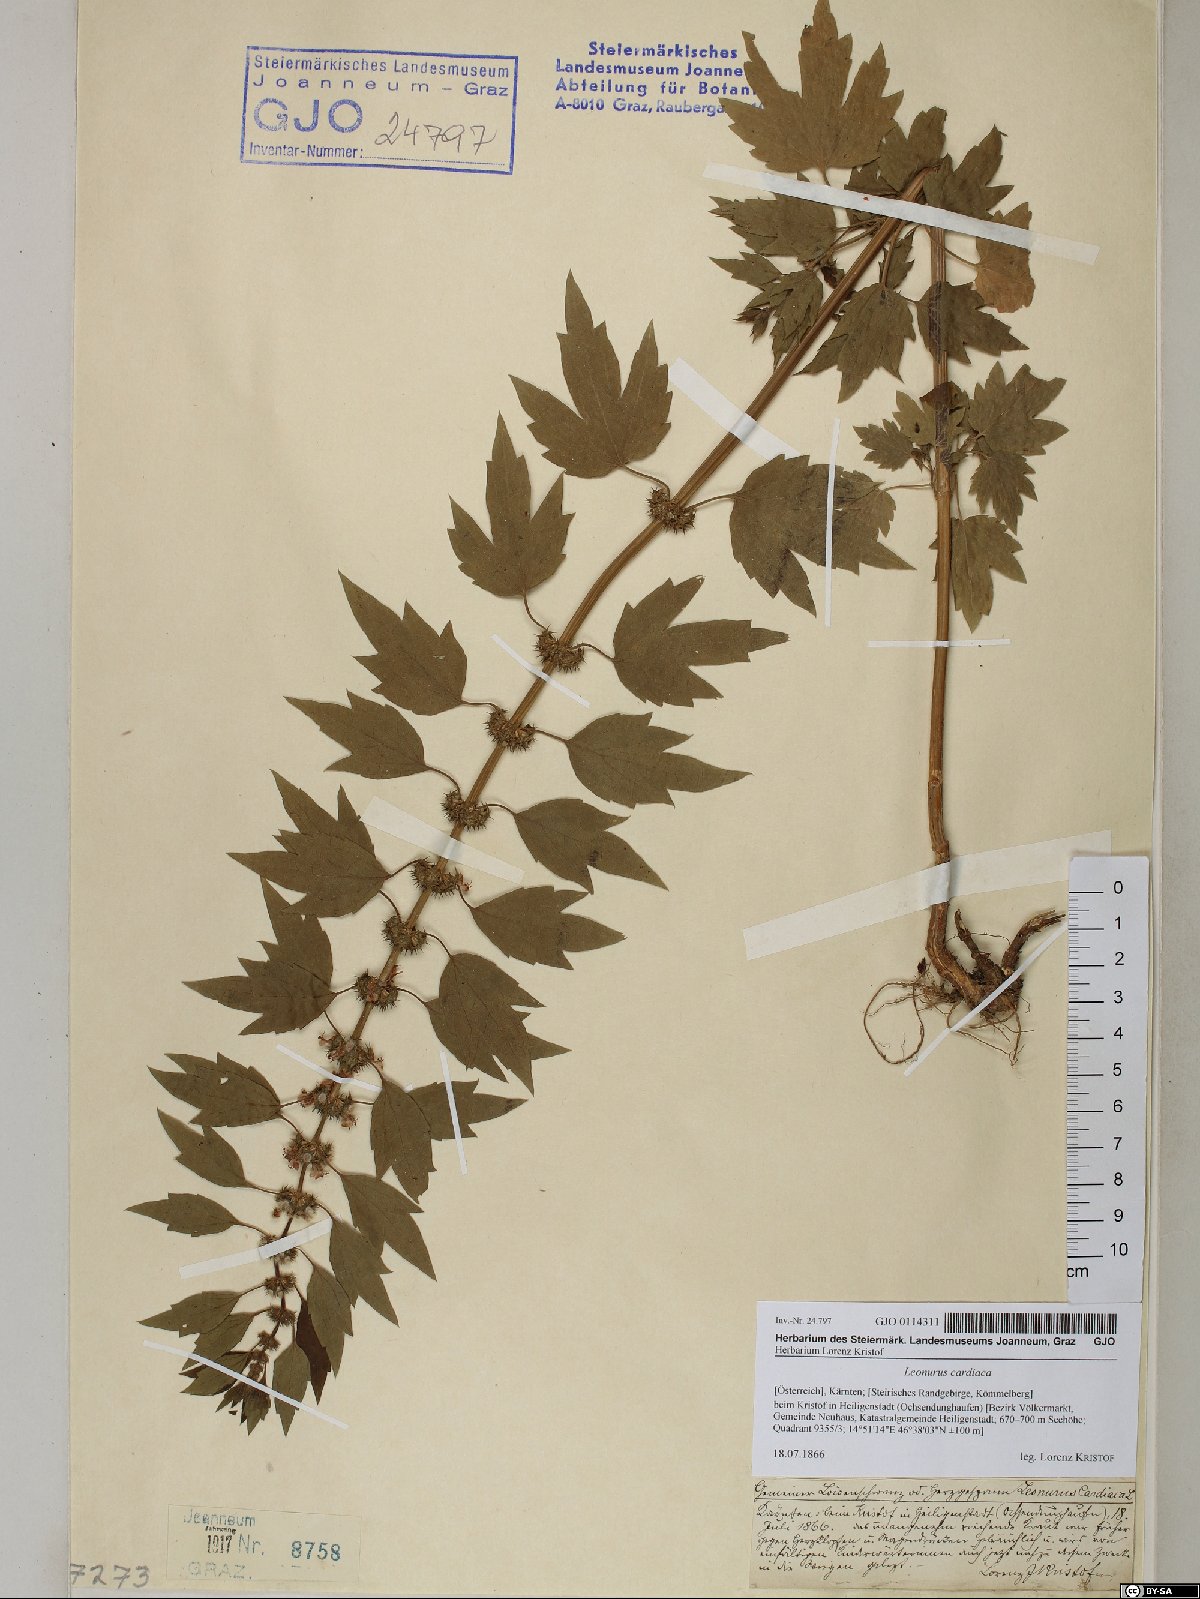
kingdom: Plantae
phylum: Tracheophyta
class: Magnoliopsida
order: Lamiales
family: Lamiaceae
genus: Leonurus
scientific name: Leonurus cardiaca
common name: Motherwort
